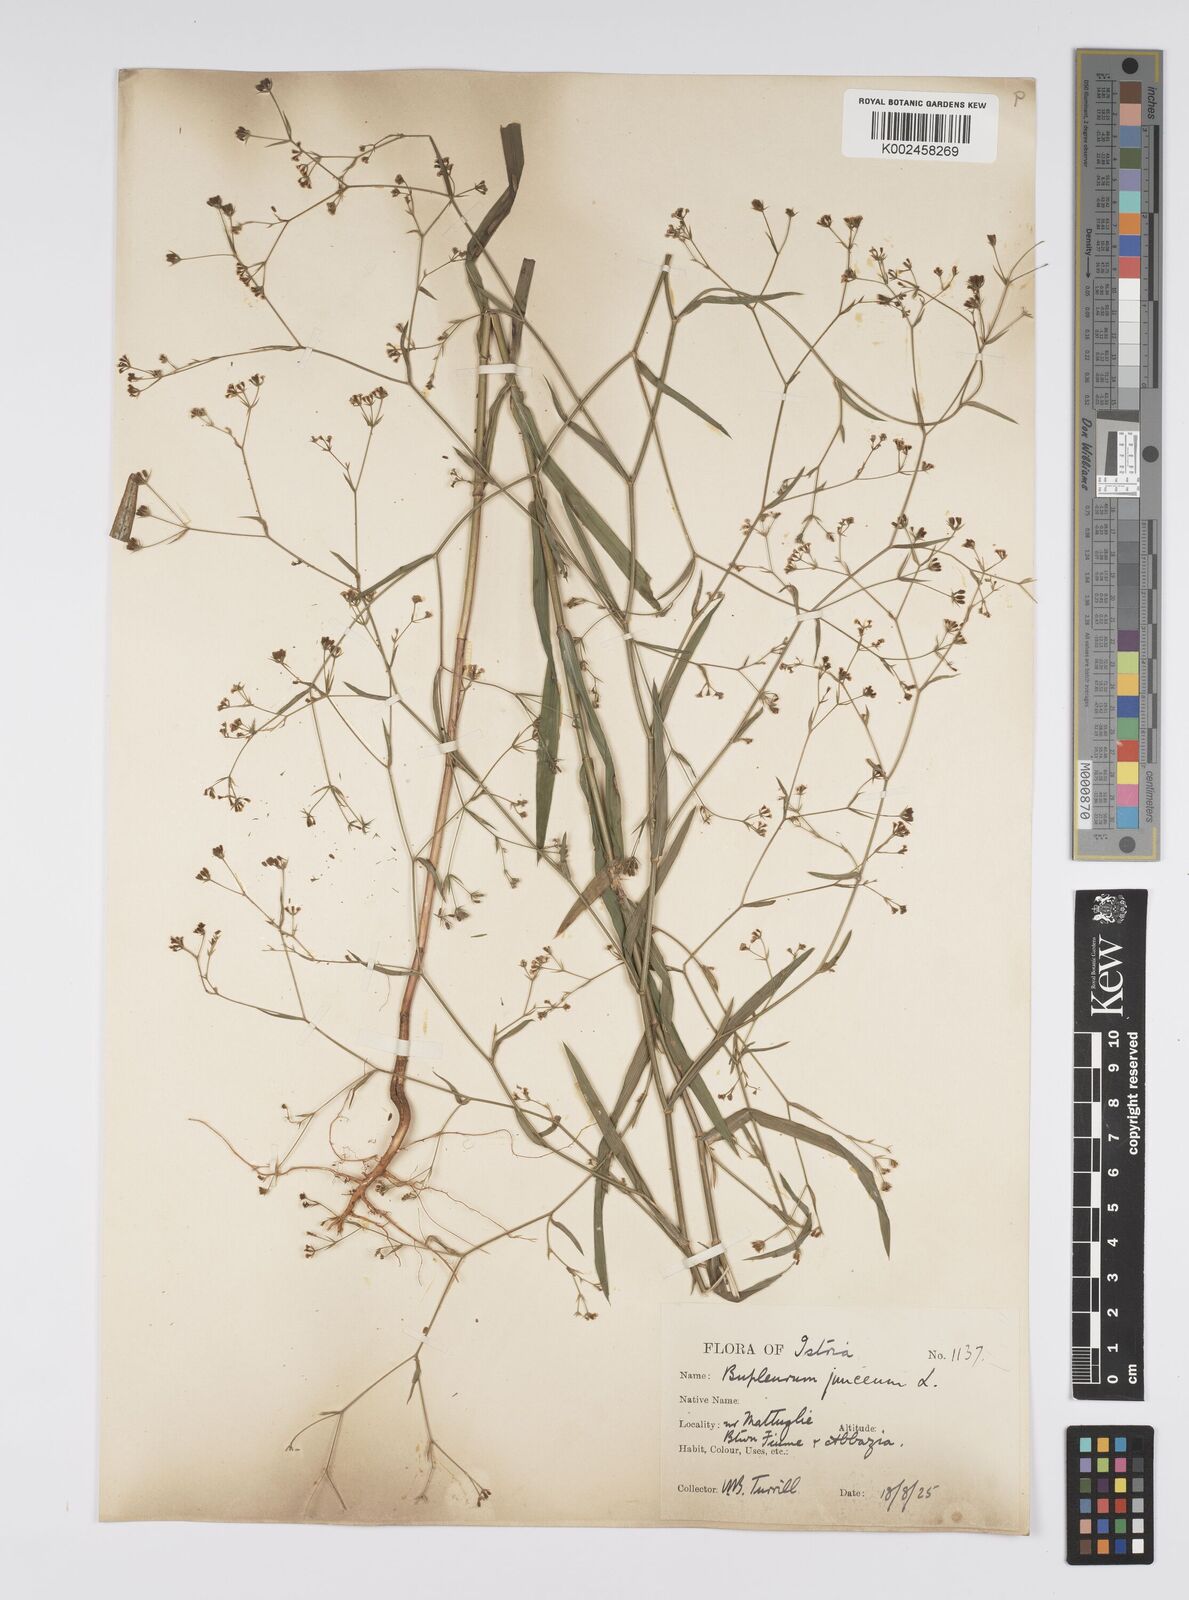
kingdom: Plantae
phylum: Tracheophyta
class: Magnoliopsida
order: Apiales
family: Apiaceae
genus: Bupleurum
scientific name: Bupleurum praealtum
